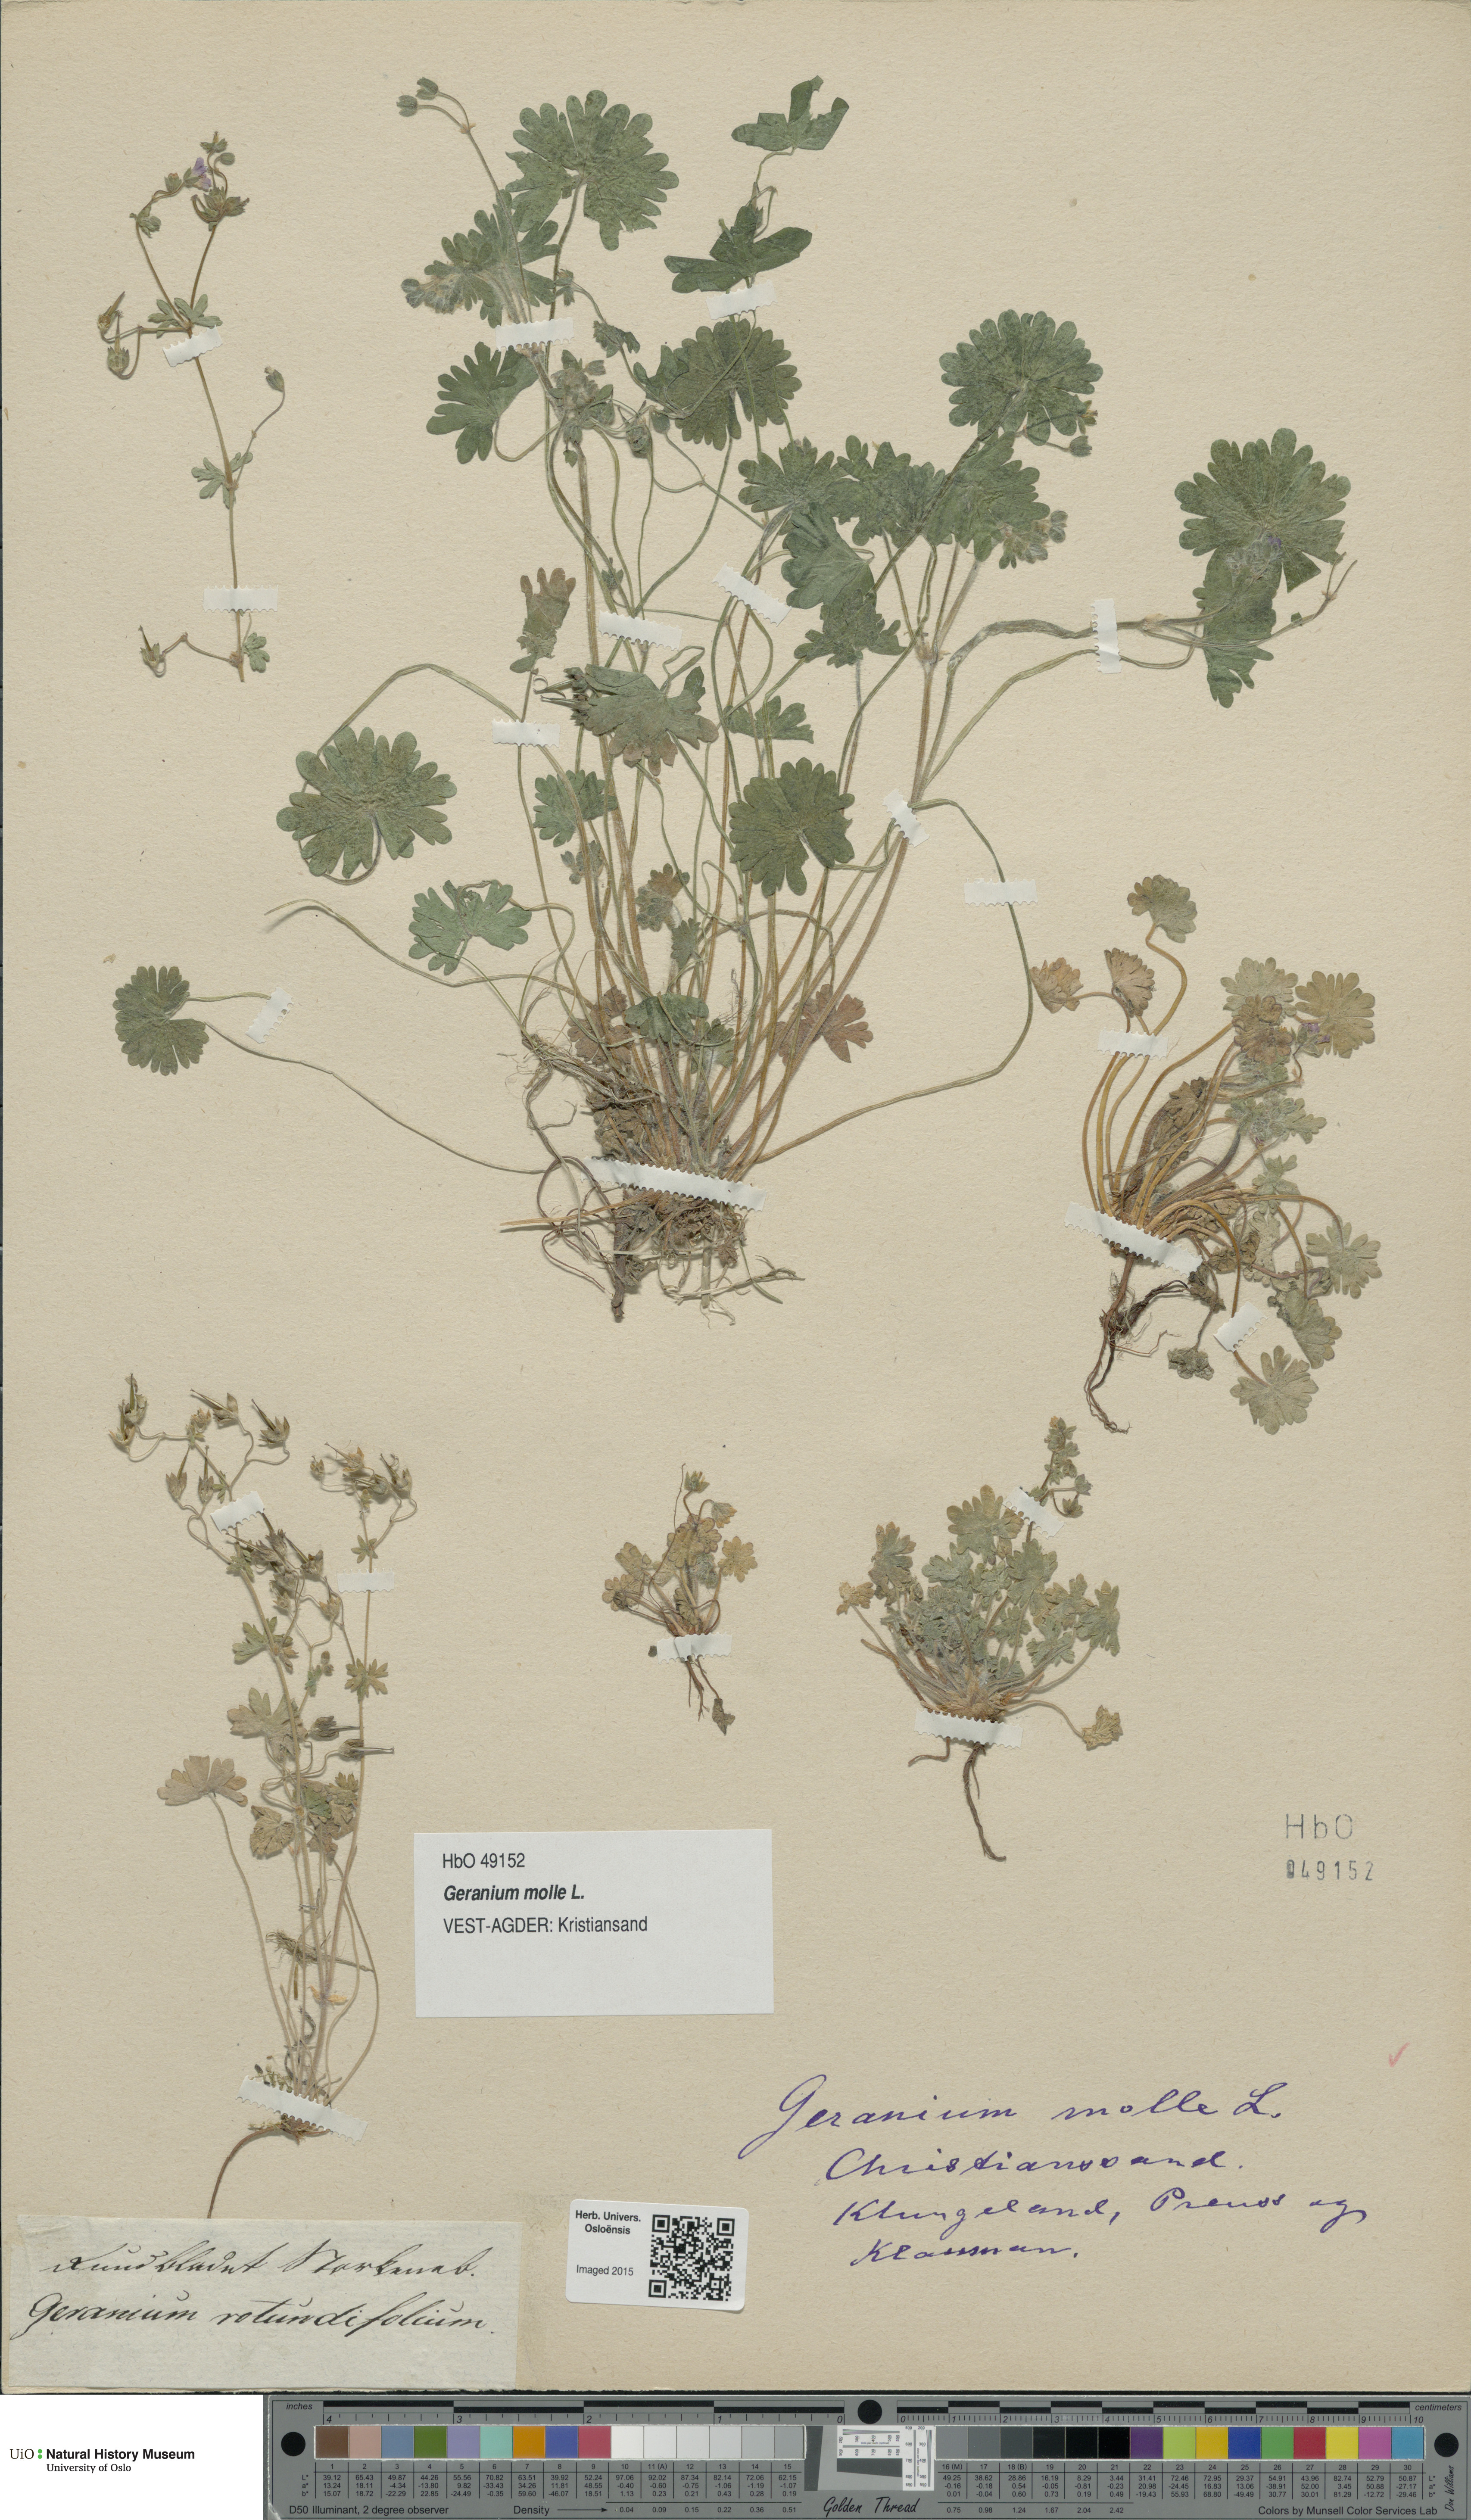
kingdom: Plantae
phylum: Tracheophyta
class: Magnoliopsida
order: Geraniales
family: Geraniaceae
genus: Geranium
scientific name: Geranium molle
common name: Dove's-foot crane's-bill
